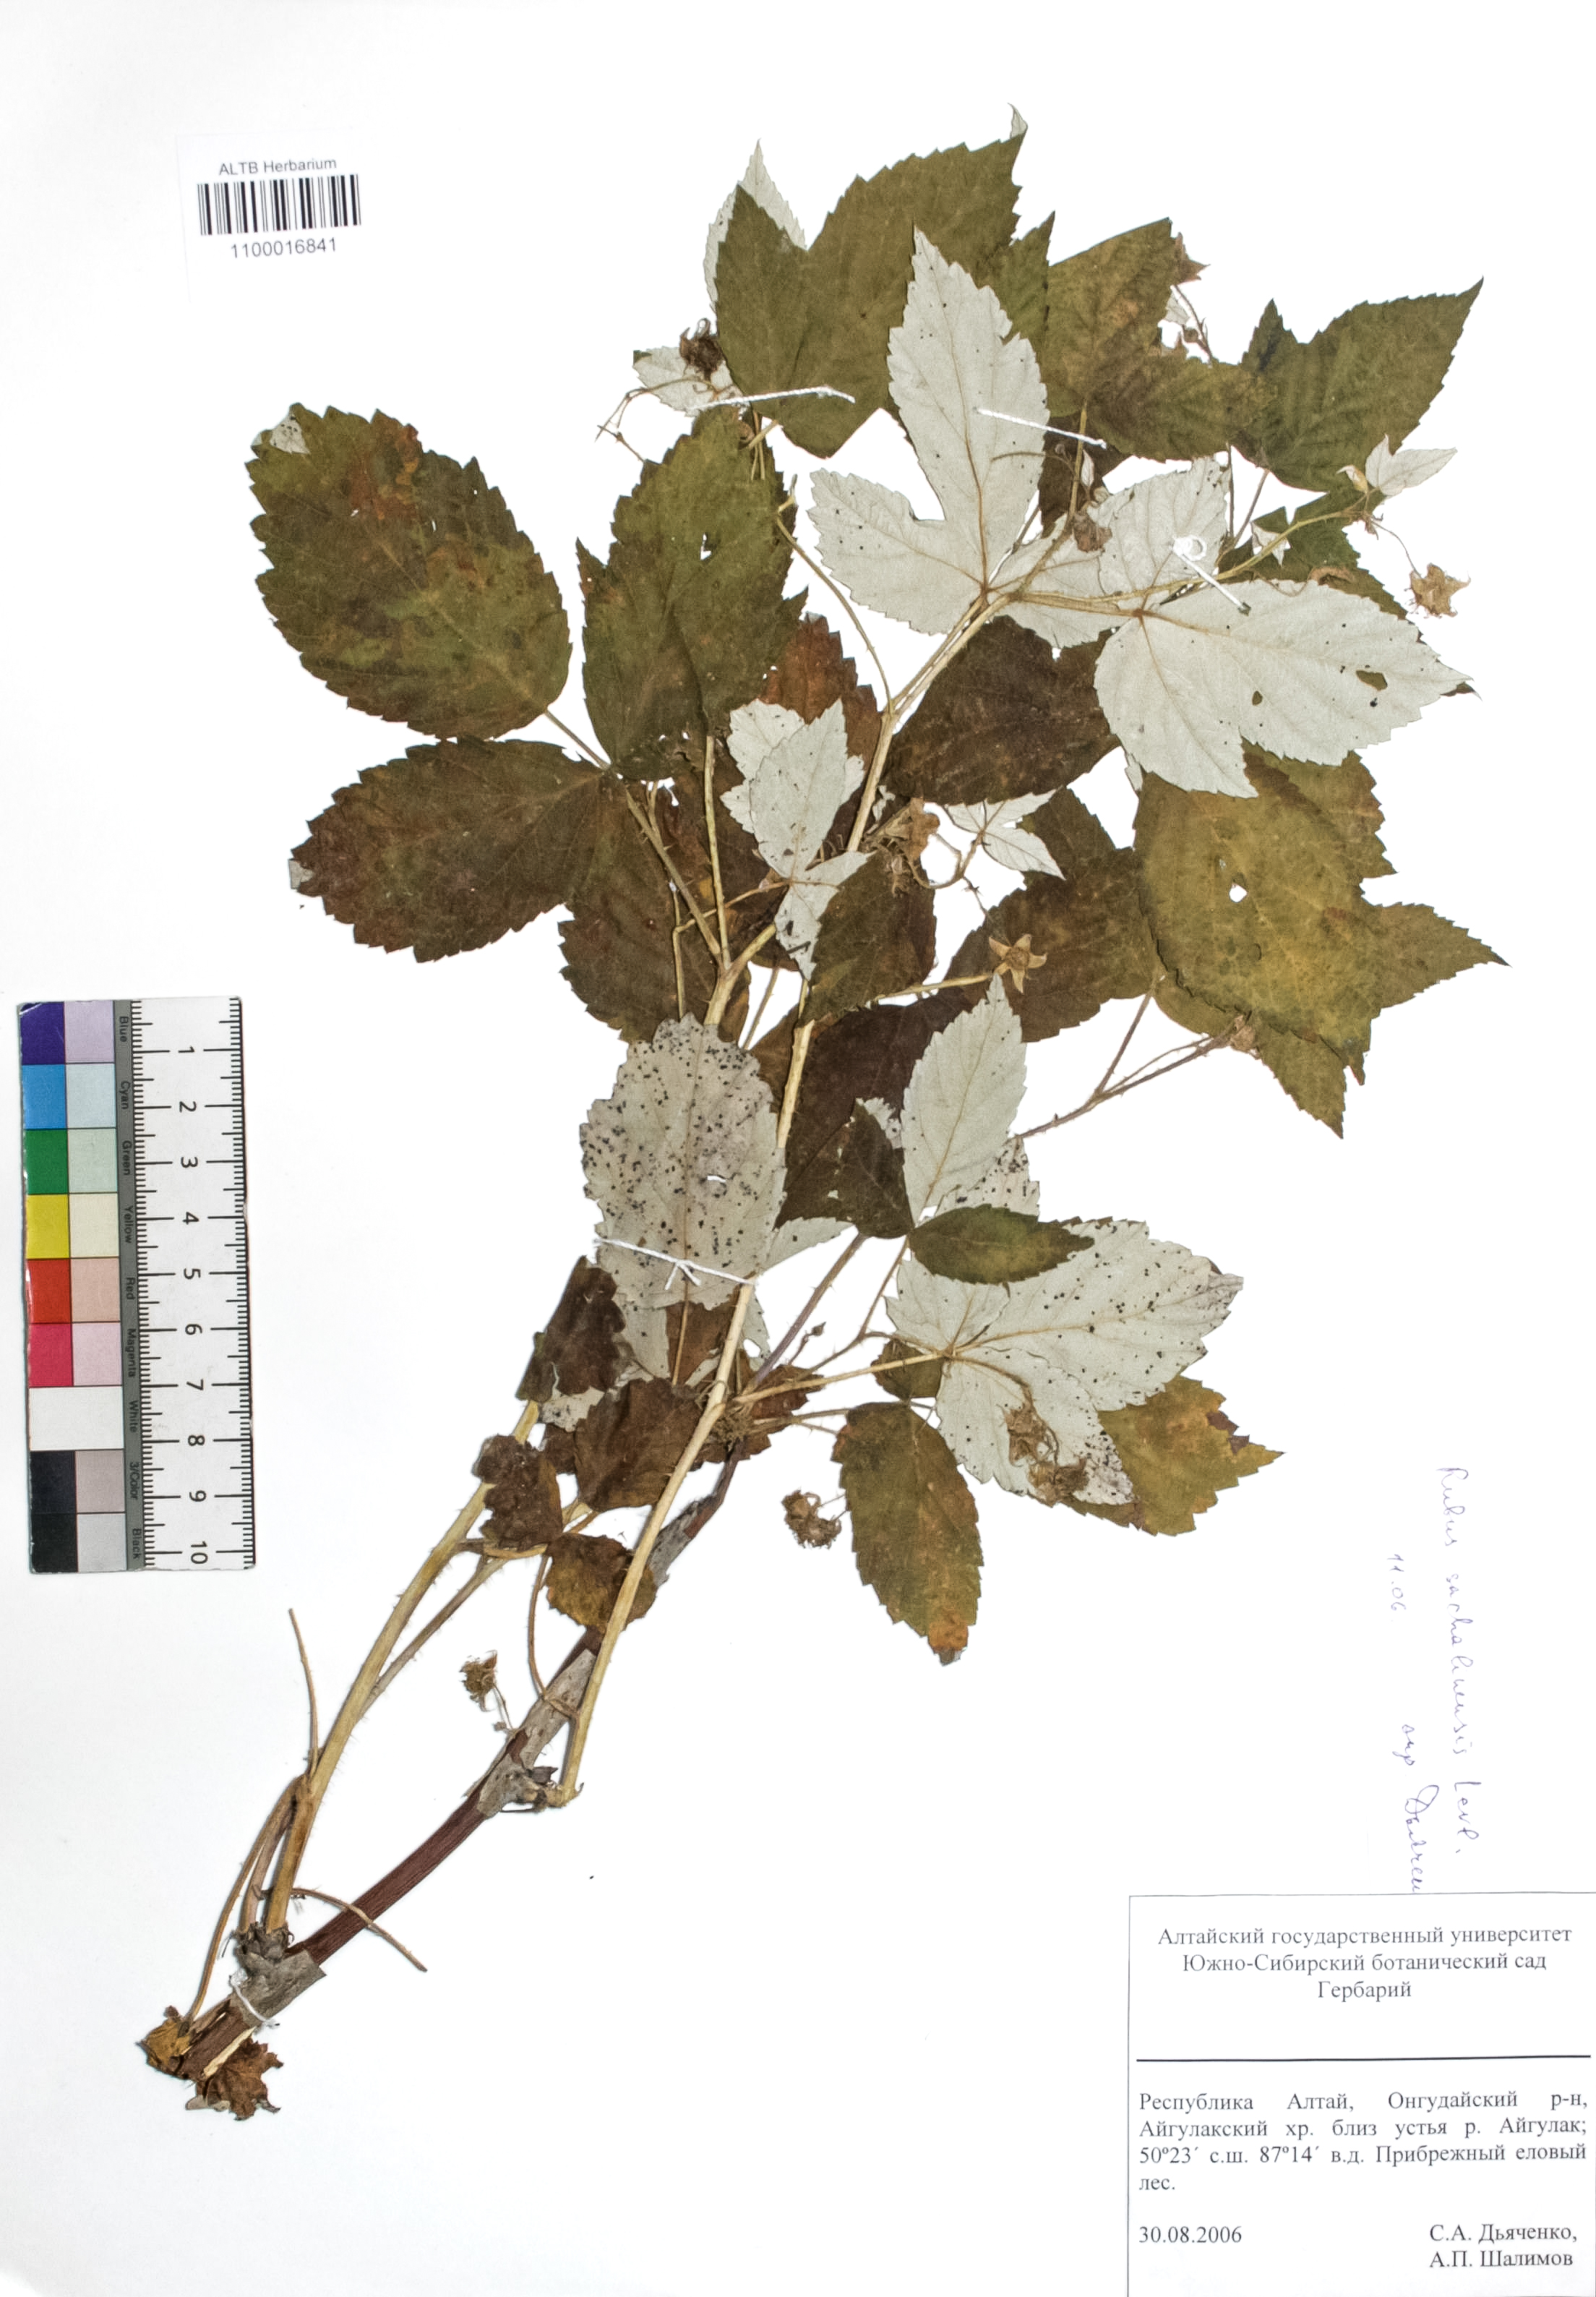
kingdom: Plantae
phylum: Tracheophyta
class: Magnoliopsida
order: Rosales
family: Rosaceae
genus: Rubus
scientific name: Rubus sachalinensis
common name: Red raspberry
